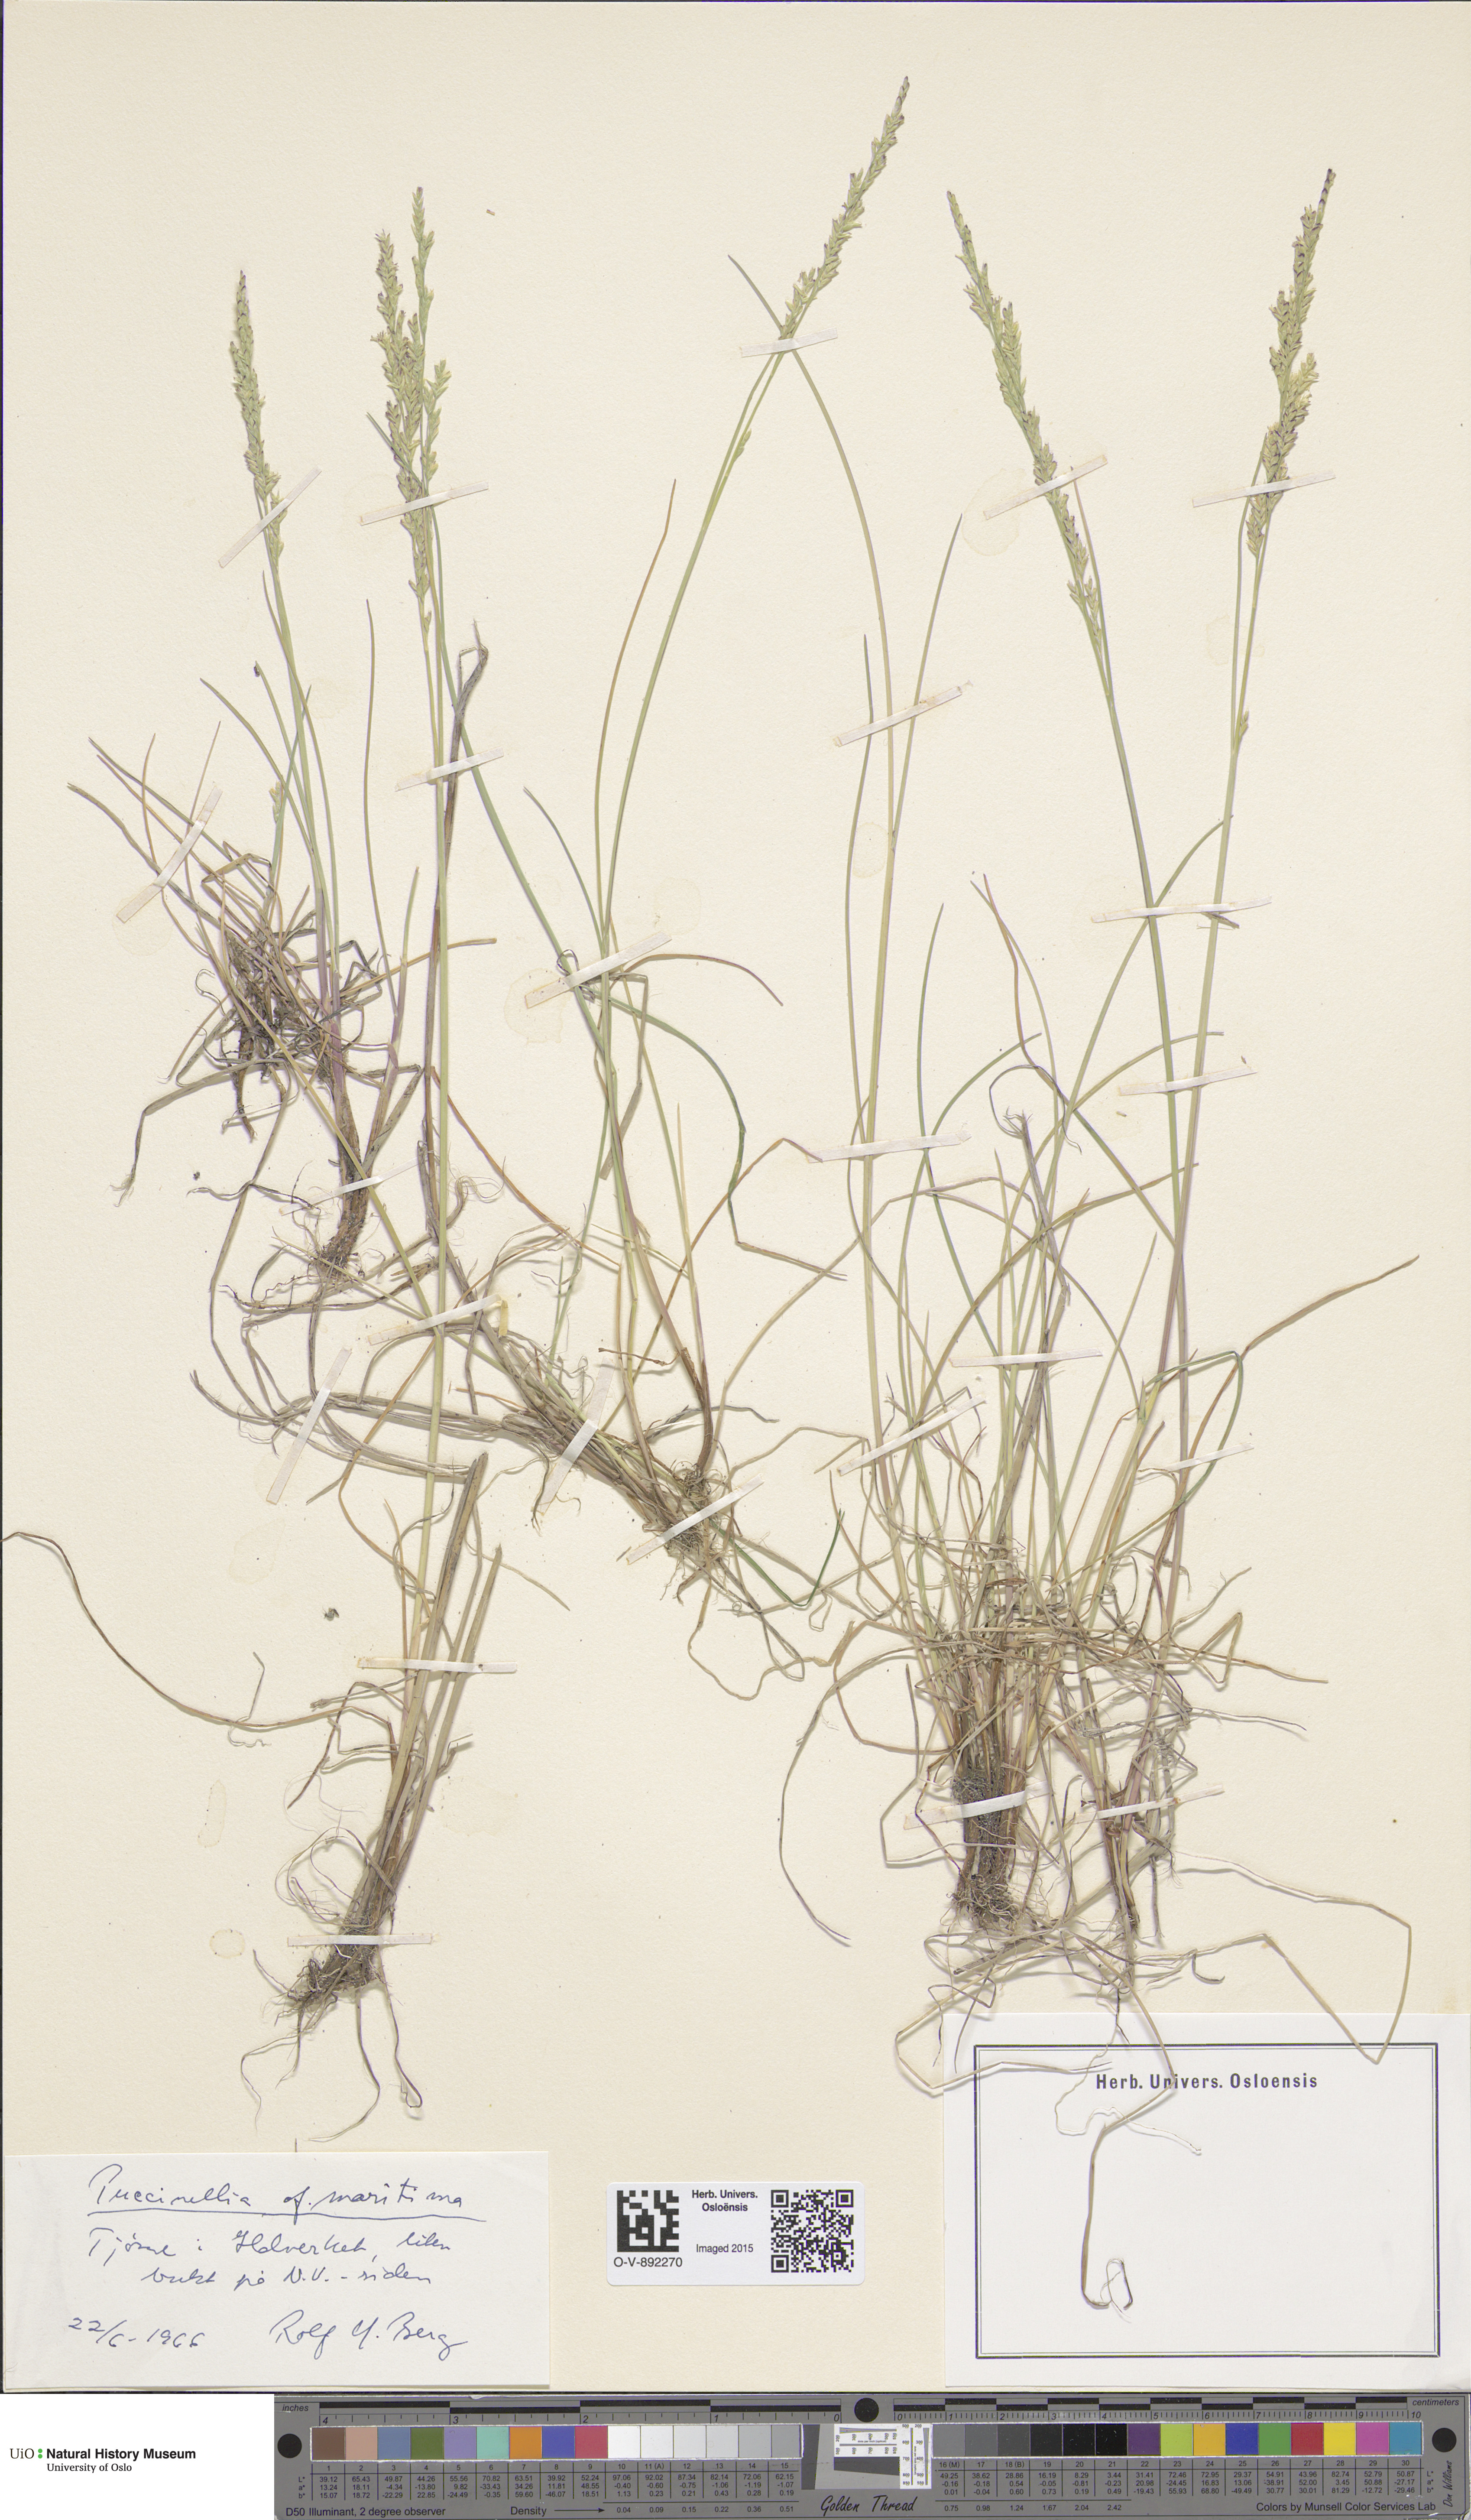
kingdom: Plantae
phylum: Tracheophyta
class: Liliopsida
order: Poales
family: Poaceae
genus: Puccinellia
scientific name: Puccinellia maritima
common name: Common saltmarsh grass
